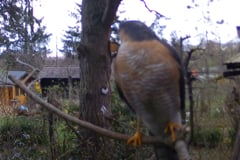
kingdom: Animalia
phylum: Chordata
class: Aves
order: Accipitriformes
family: Accipitridae
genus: Accipiter
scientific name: Accipiter nisus
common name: Eurasian sparrowhawk
